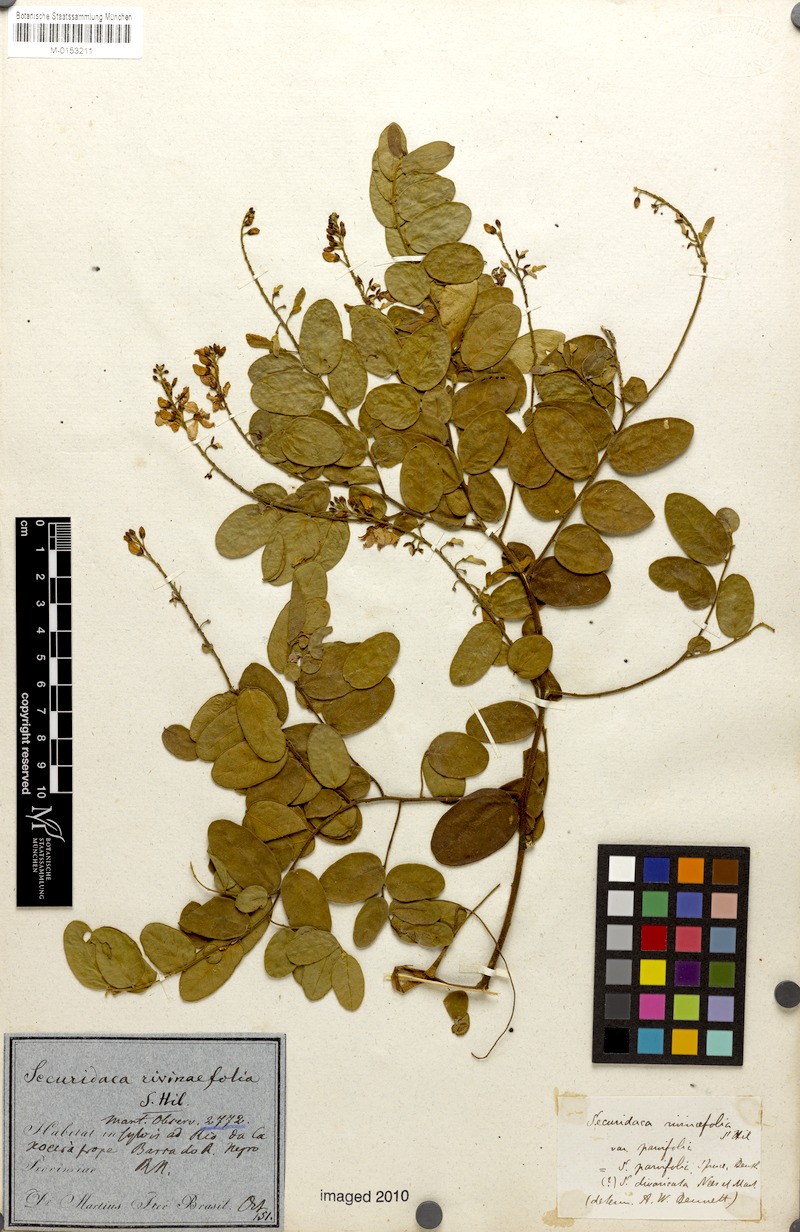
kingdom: Plantae
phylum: Tracheophyta
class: Magnoliopsida
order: Fabales
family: Polygalaceae
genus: Securidaca
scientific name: Securidaca divaricata
